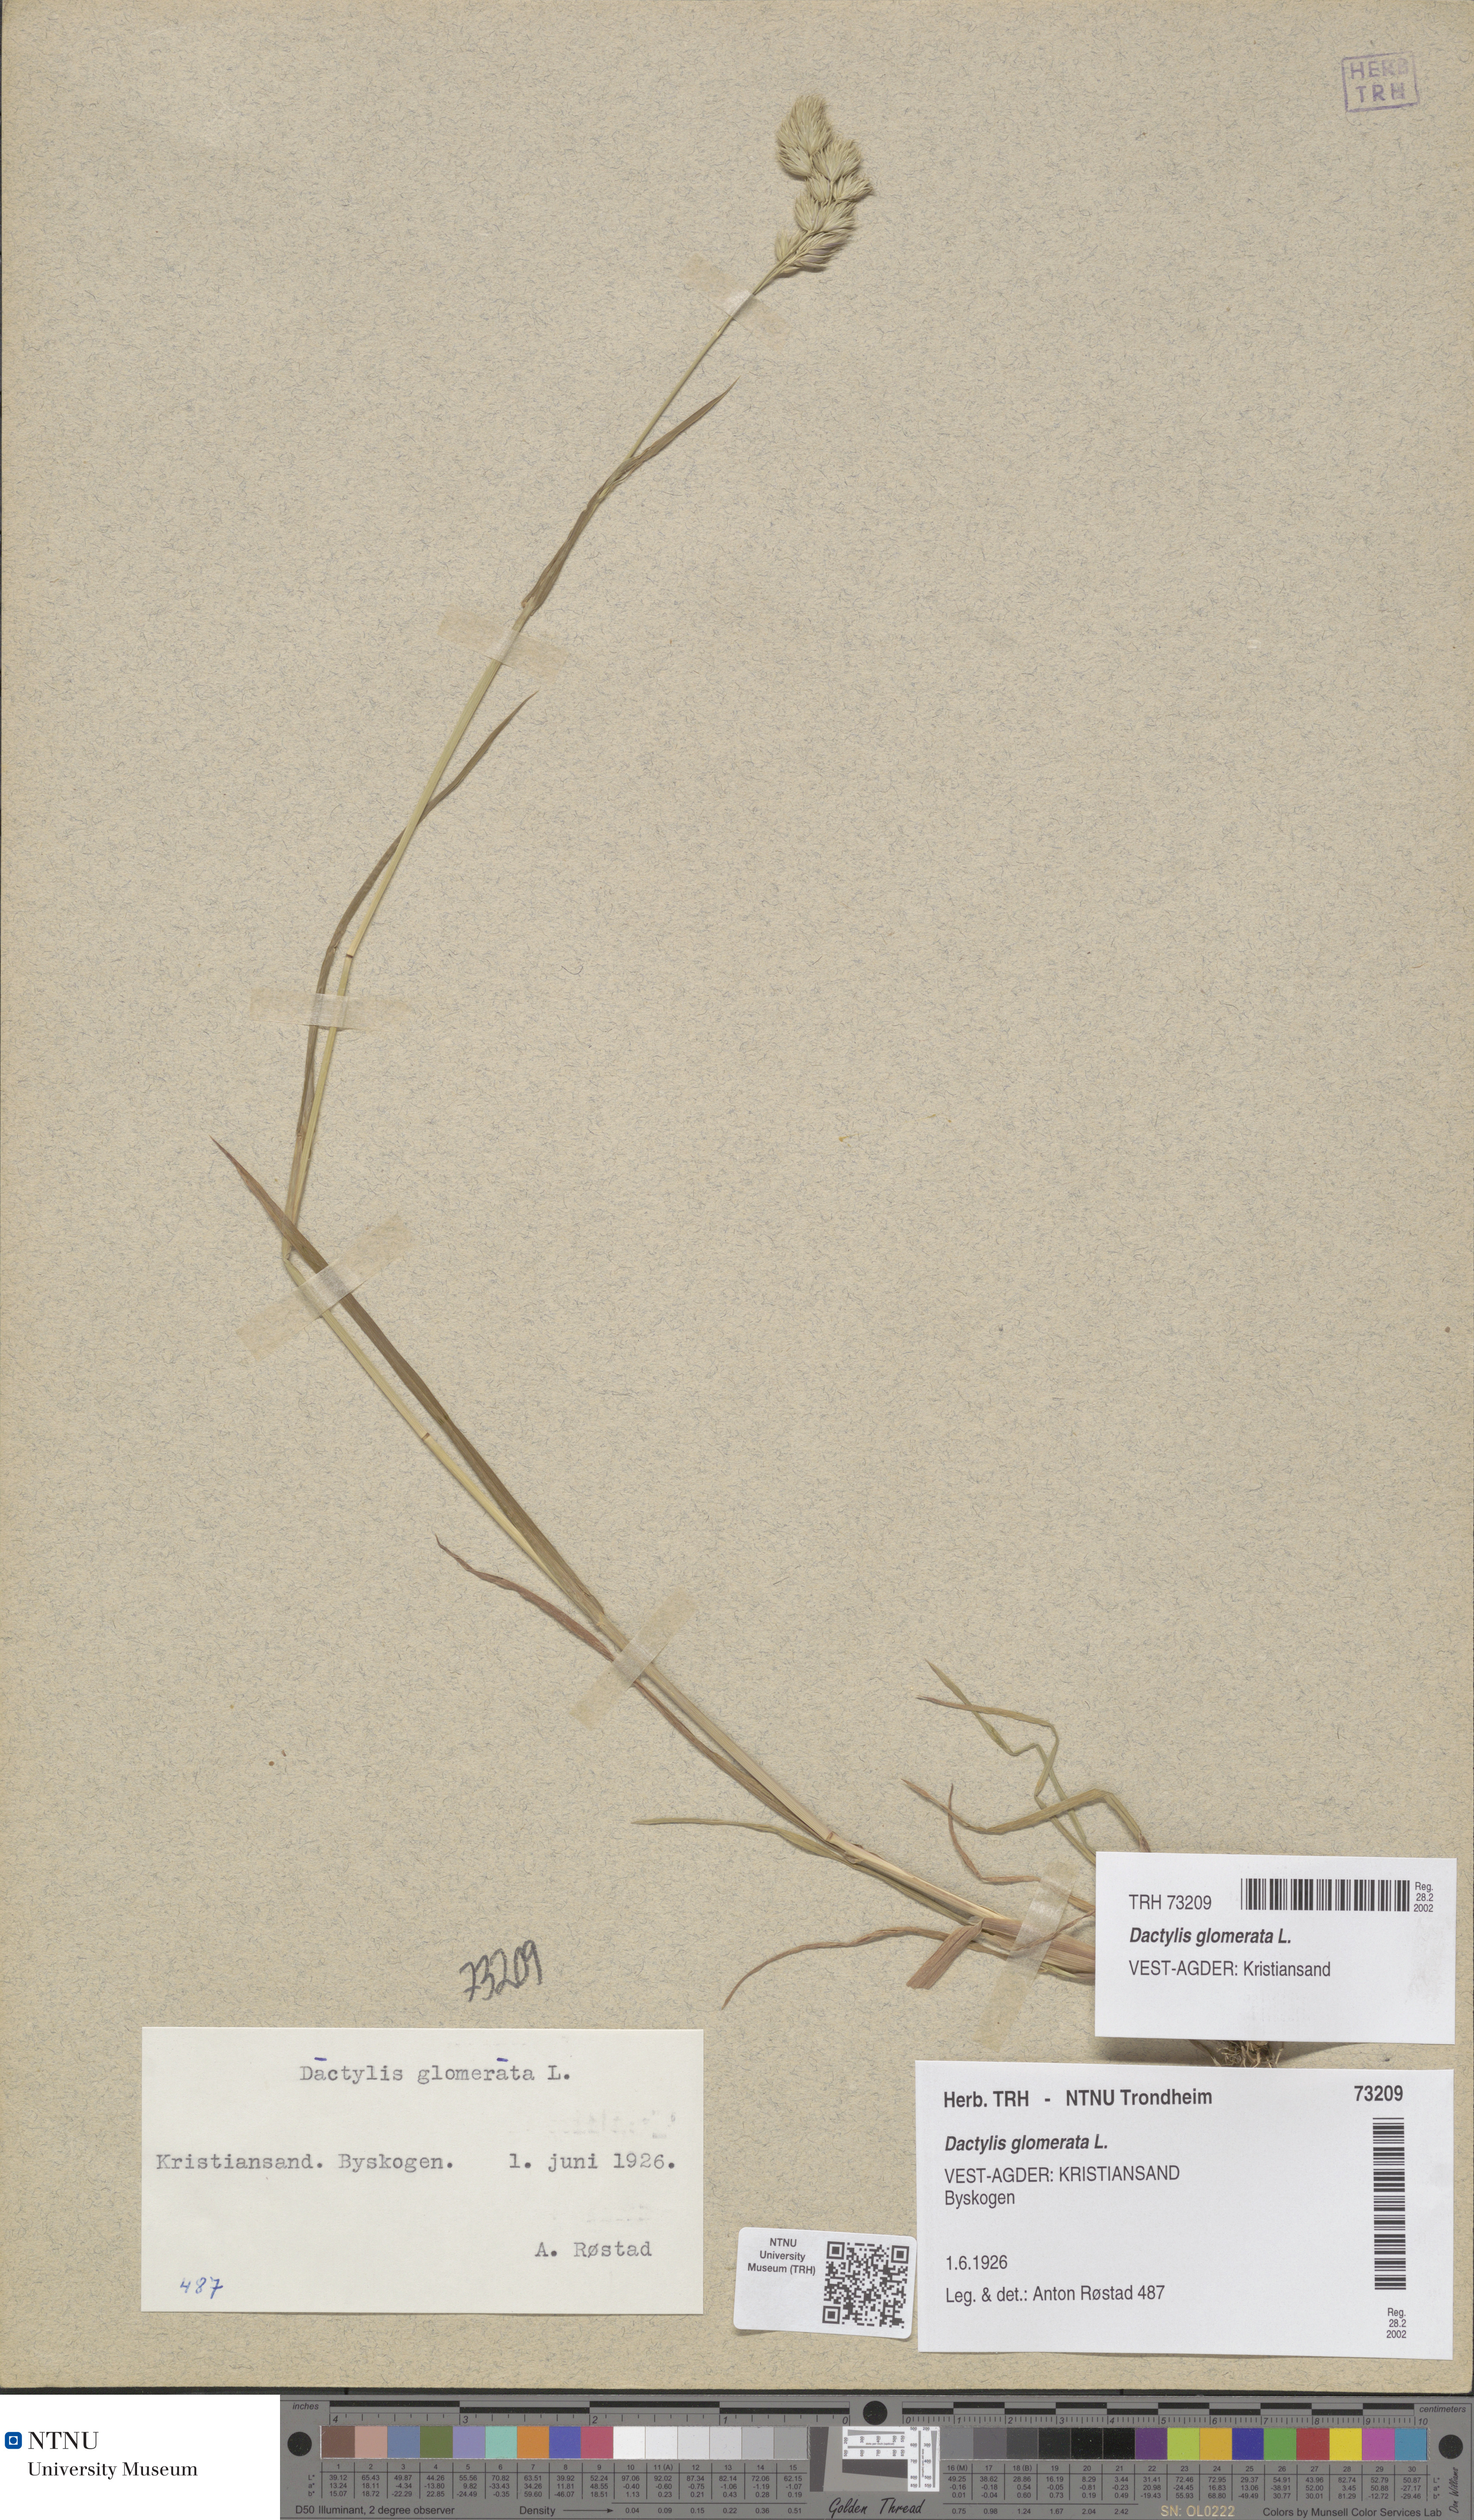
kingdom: Plantae
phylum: Tracheophyta
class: Liliopsida
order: Poales
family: Poaceae
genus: Dactylis
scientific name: Dactylis glomerata
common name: Orchardgrass
